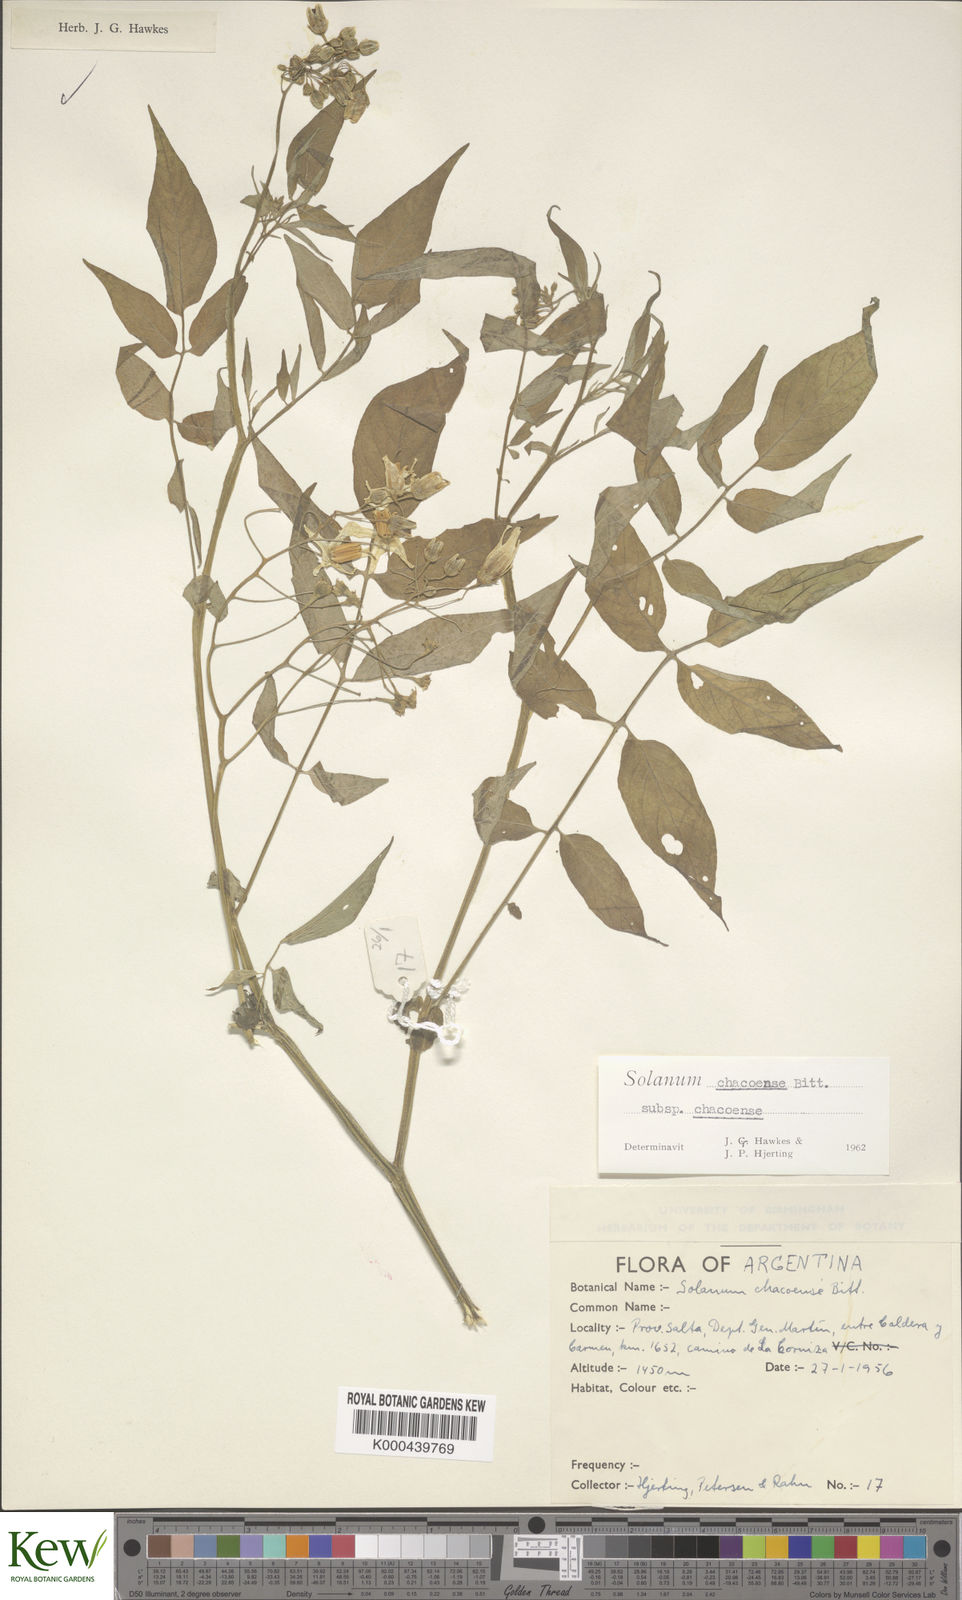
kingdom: Plantae
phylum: Tracheophyta
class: Magnoliopsida
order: Solanales
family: Solanaceae
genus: Solanum
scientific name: Solanum chacoense
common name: Chaco potato
